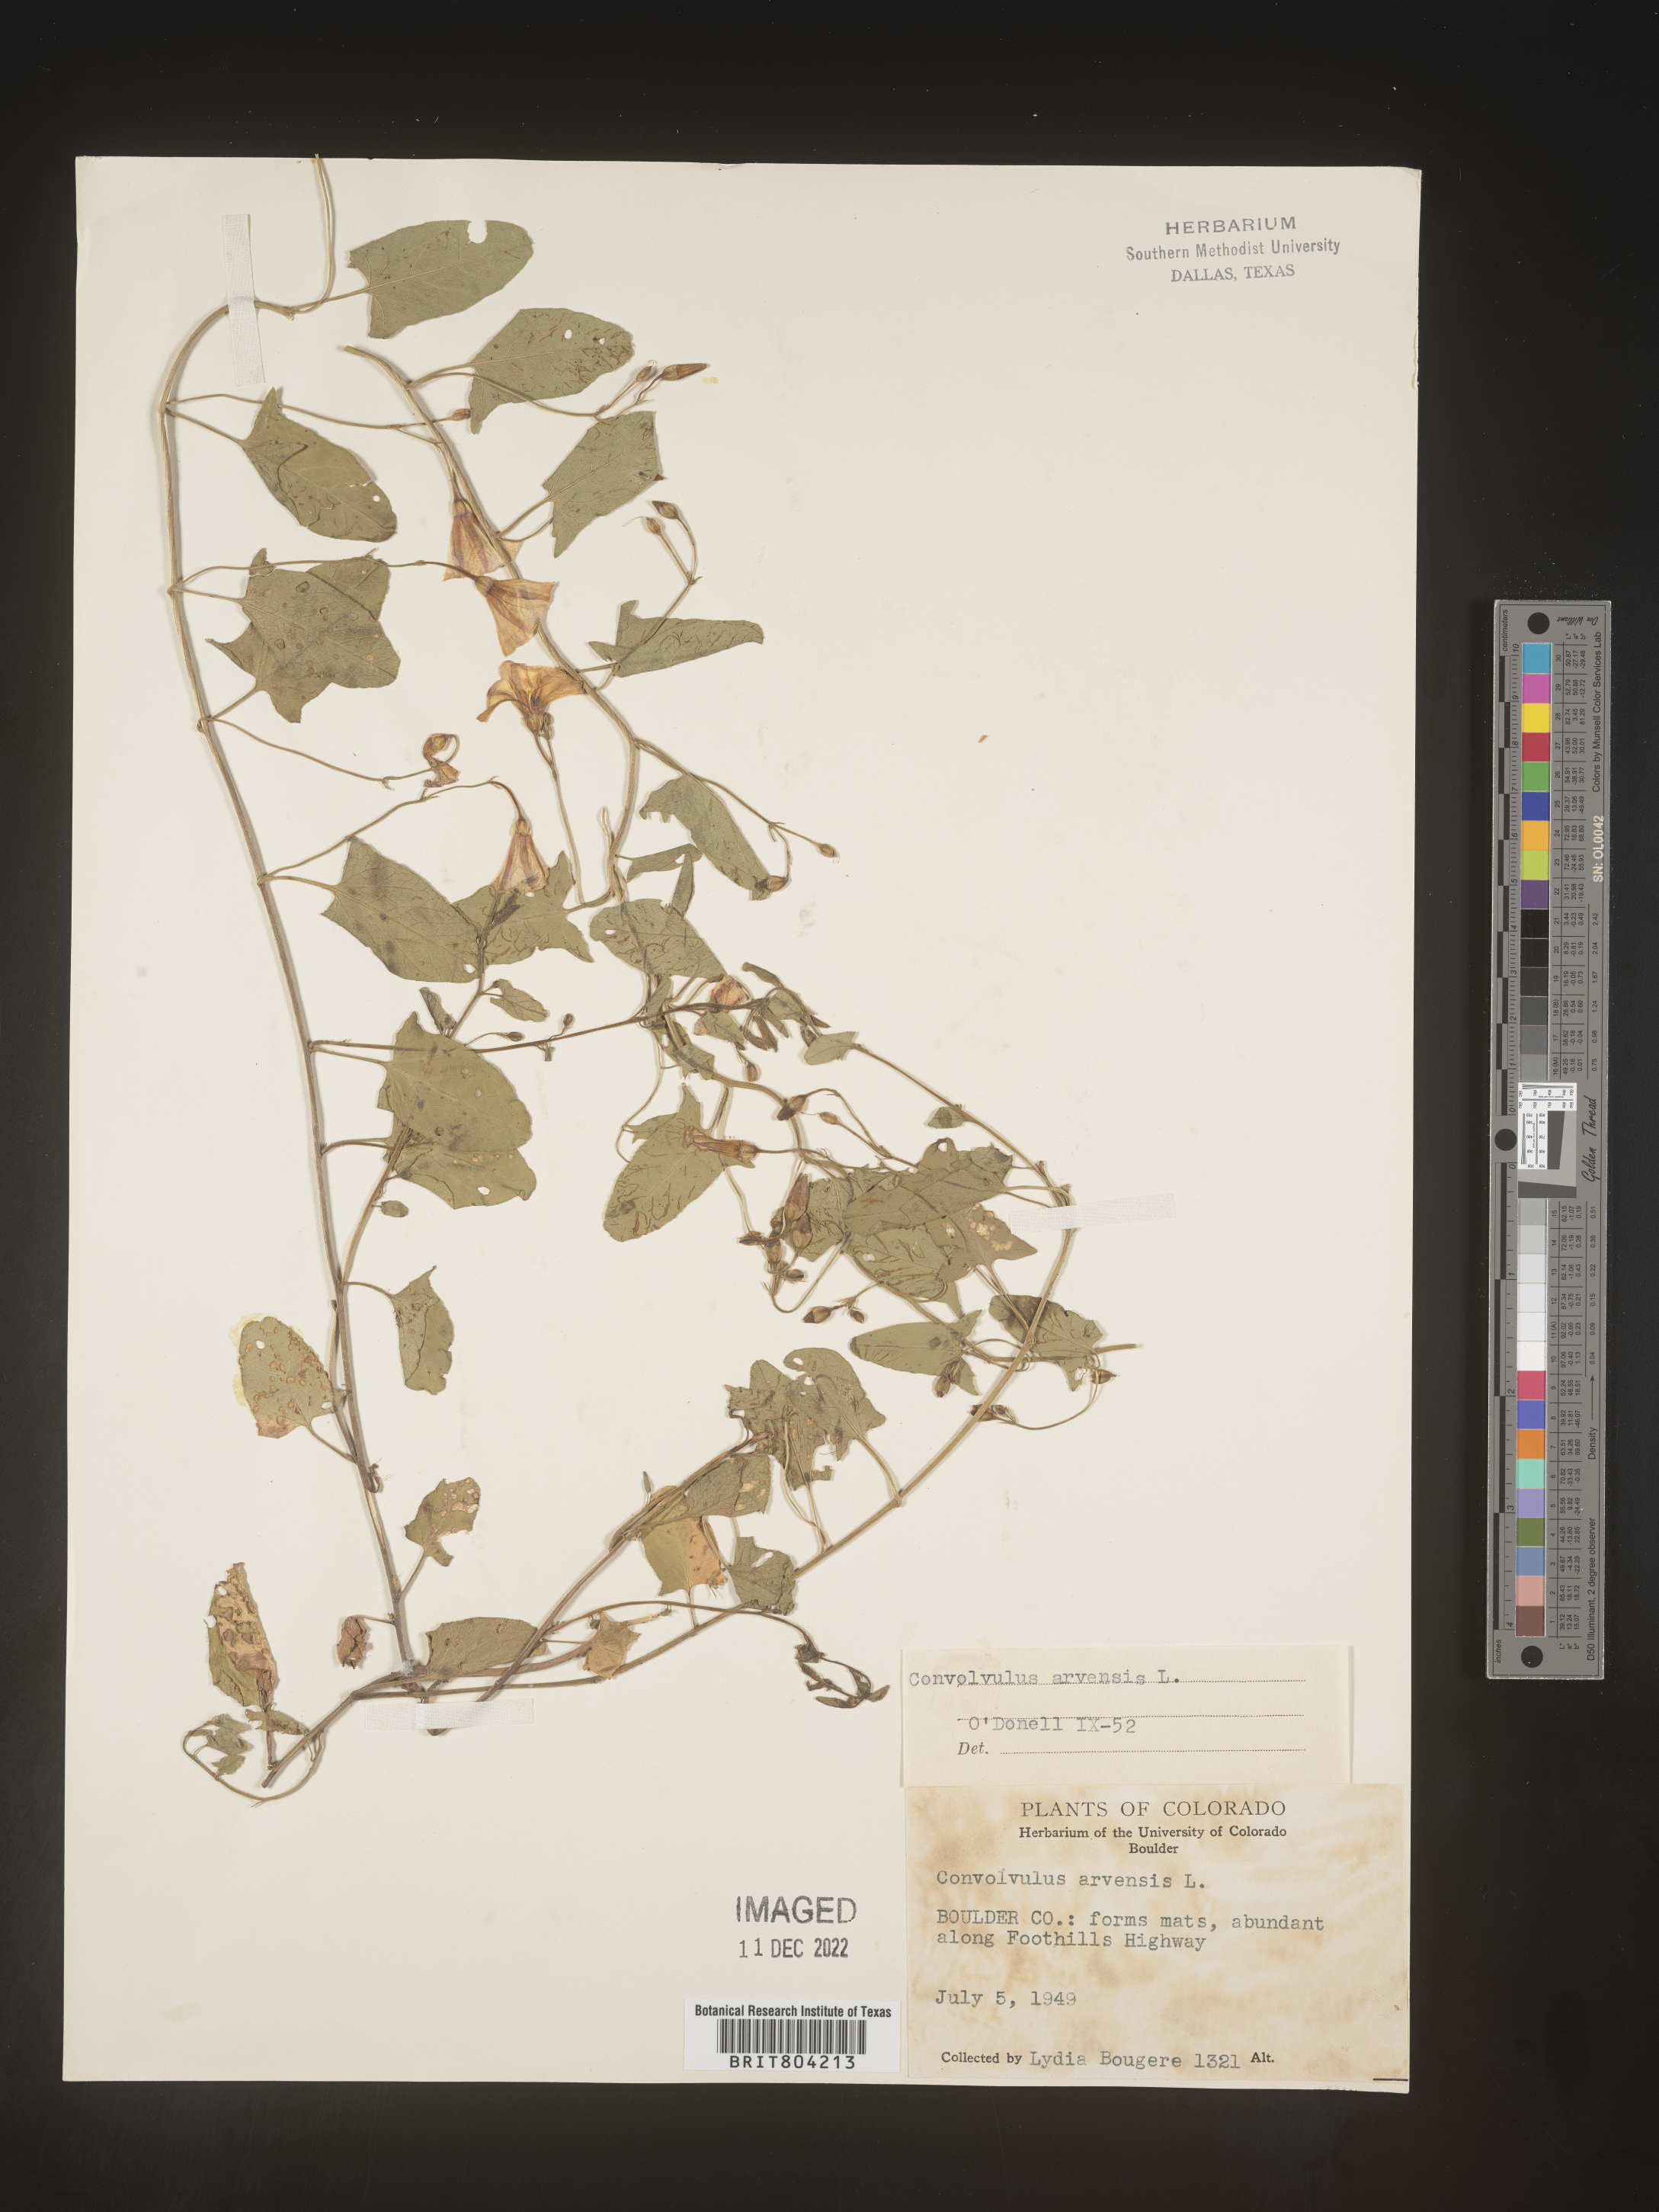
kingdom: Plantae
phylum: Tracheophyta
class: Magnoliopsida
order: Solanales
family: Convolvulaceae
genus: Convolvulus
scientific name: Convolvulus arvensis
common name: Field bindweed
